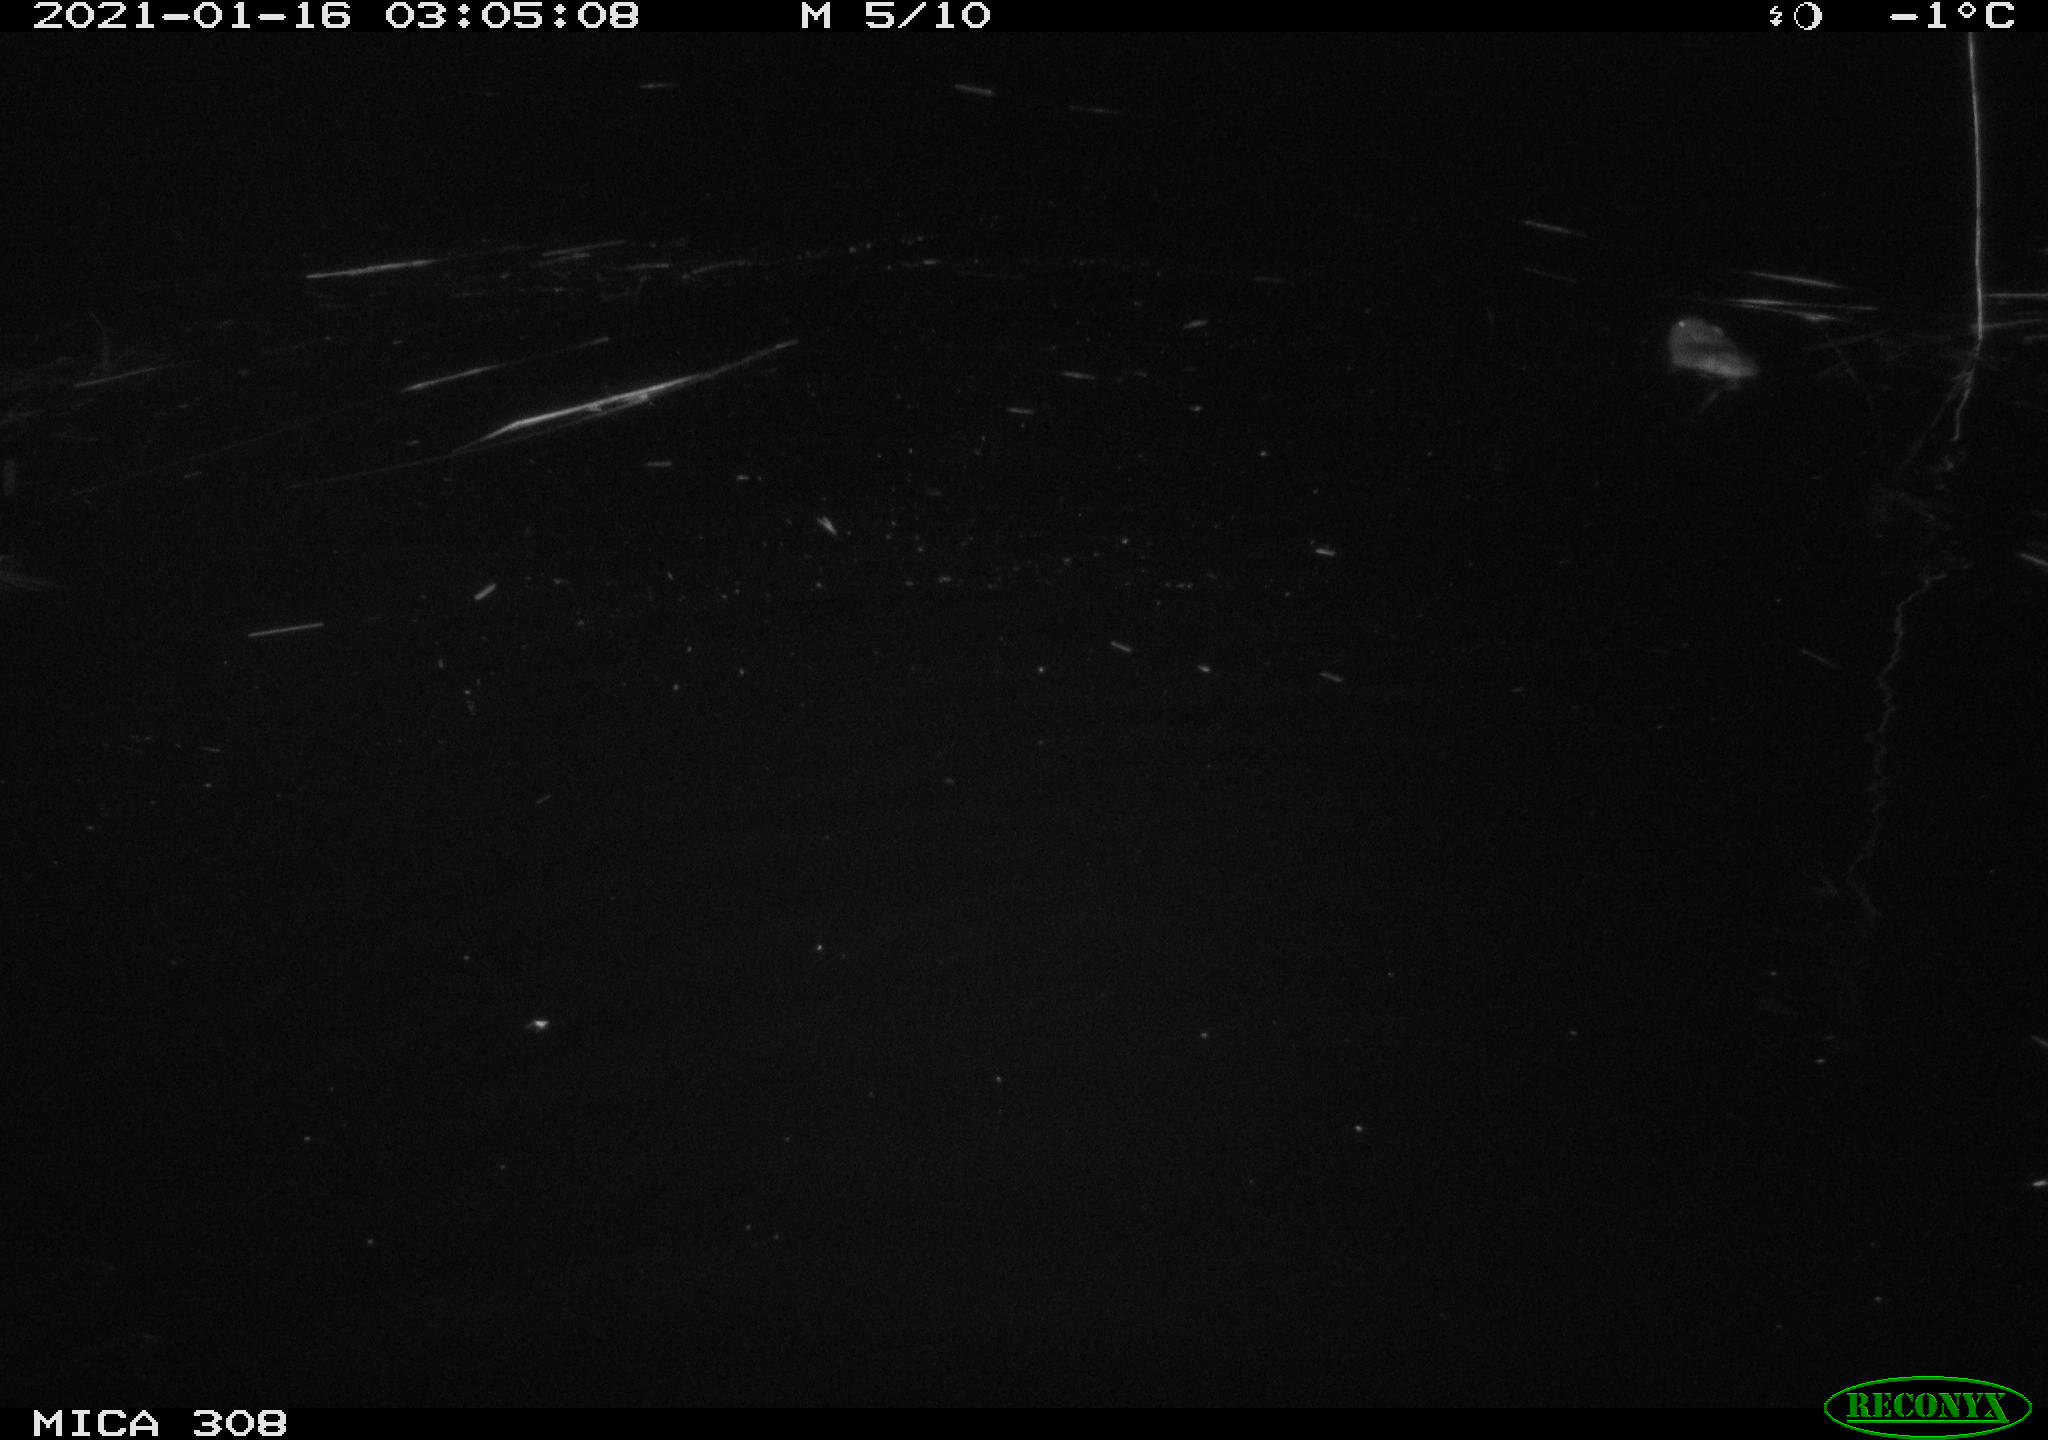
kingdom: Animalia
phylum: Chordata
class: Mammalia
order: Rodentia
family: Cricetidae
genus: Ondatra
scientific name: Ondatra zibethicus
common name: Muskrat
